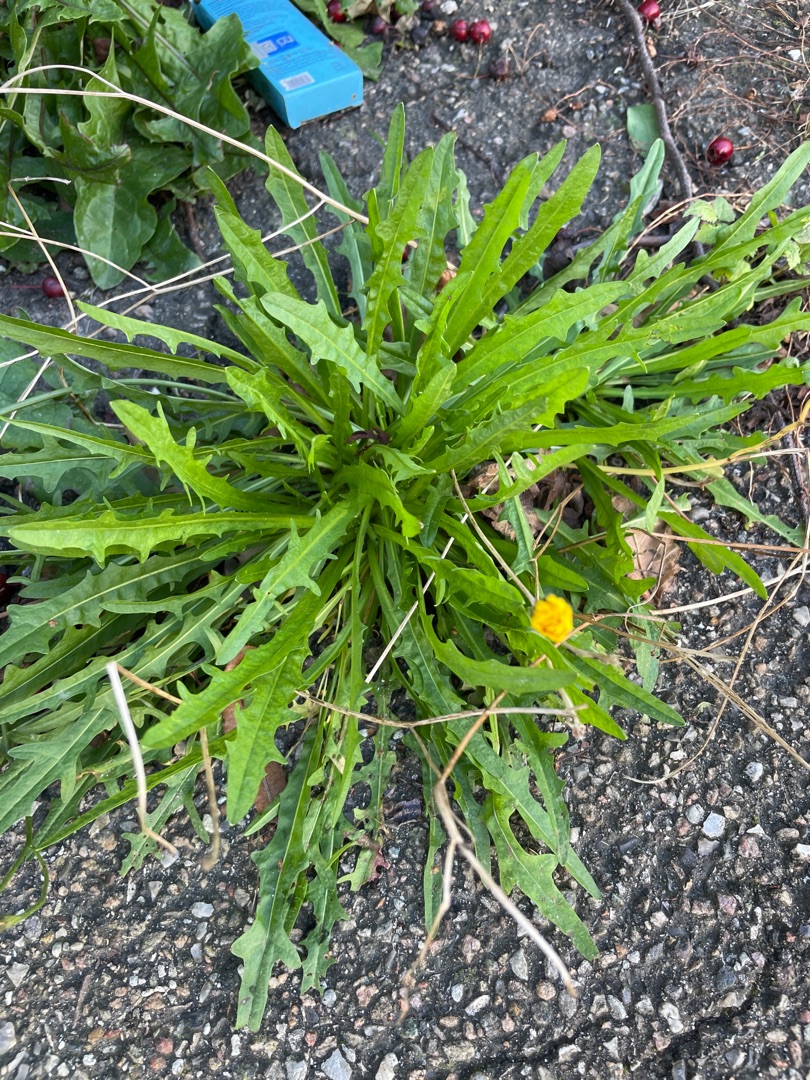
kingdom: Plantae
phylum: Tracheophyta
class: Magnoliopsida
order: Asterales
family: Asteraceae
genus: Scorzoneroides
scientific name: Scorzoneroides autumnalis
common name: Høst-borst
